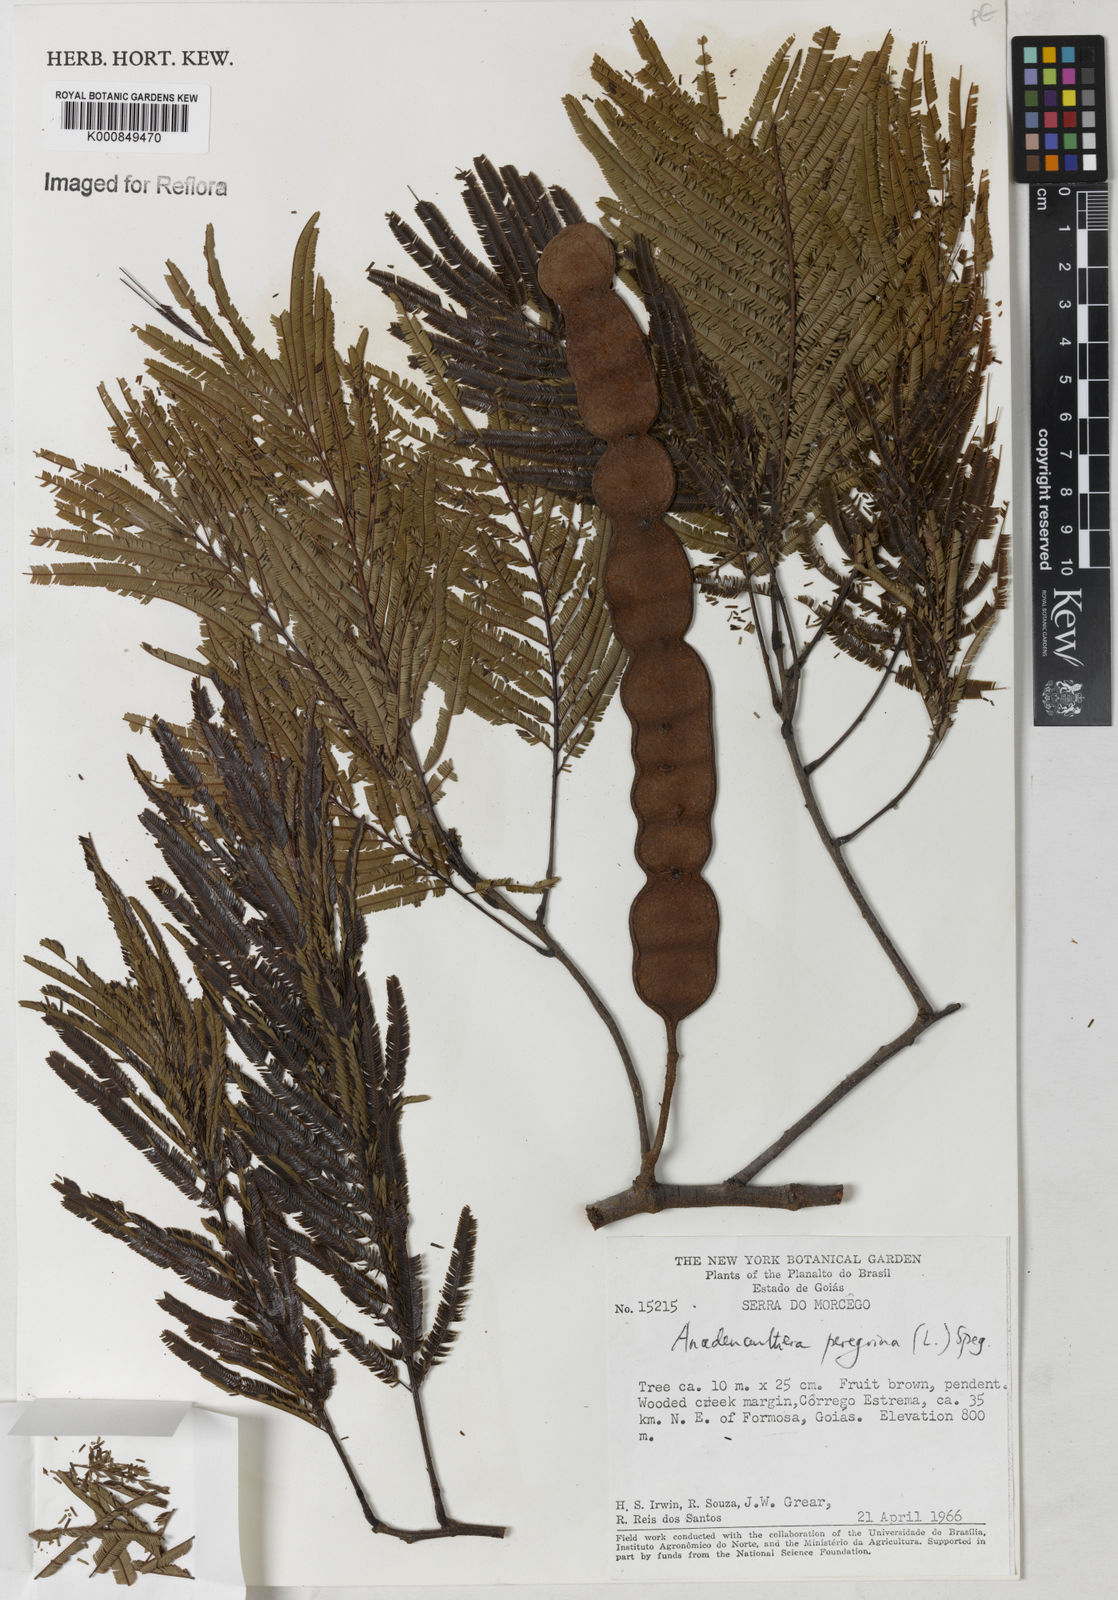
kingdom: Plantae
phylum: Tracheophyta
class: Magnoliopsida
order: Fabales
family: Fabaceae
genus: Anadenanthera
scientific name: Anadenanthera peregrina
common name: Cohoba
